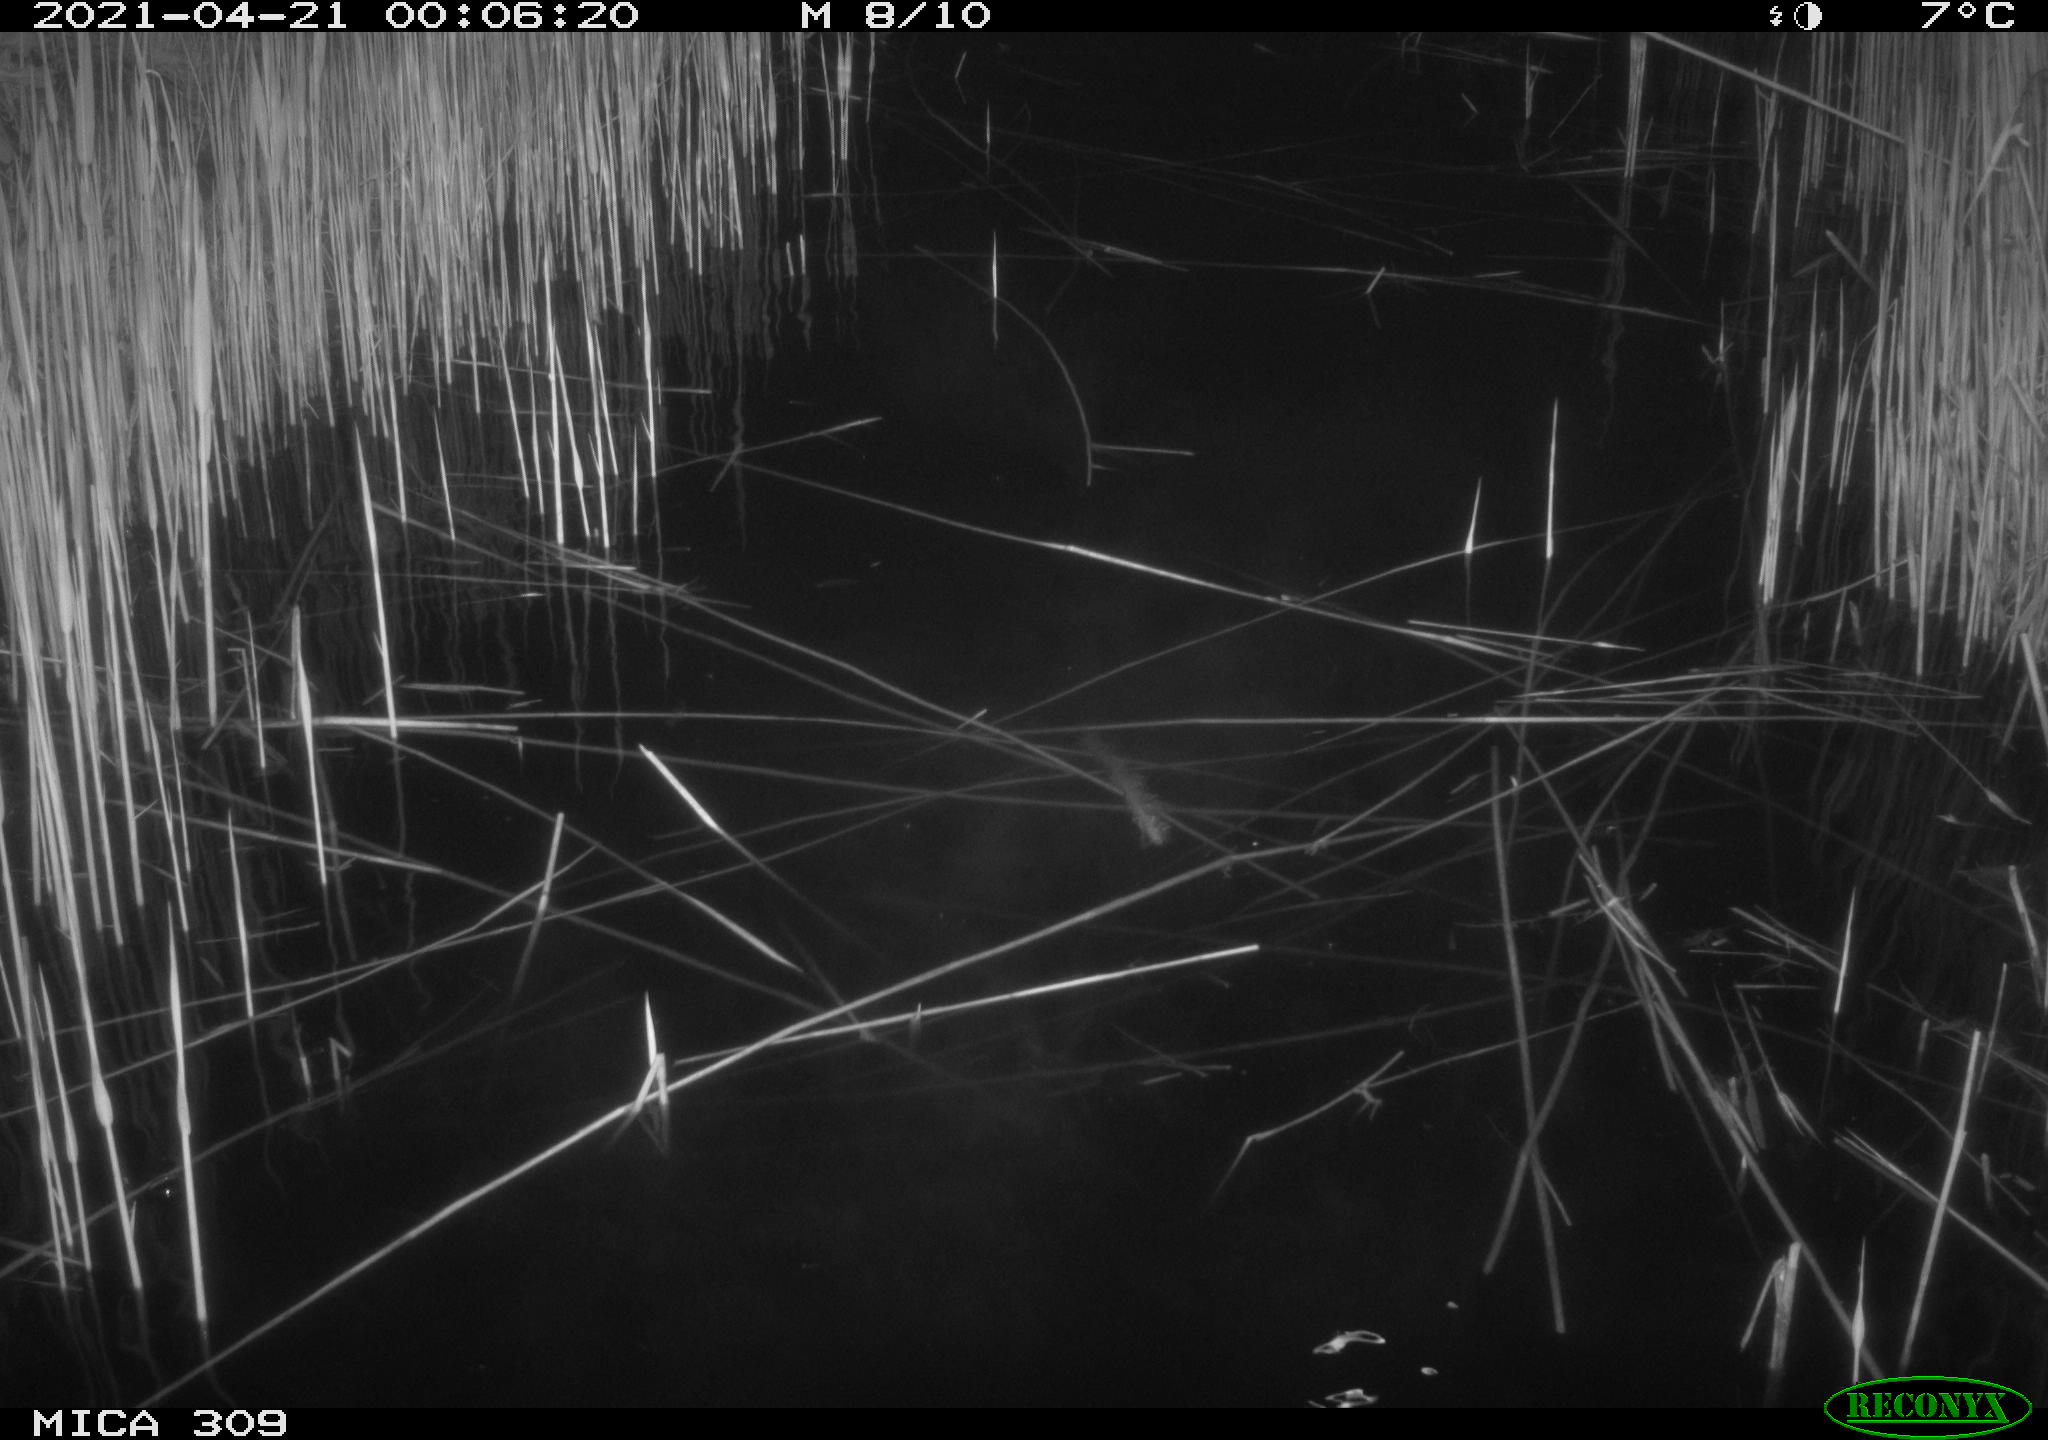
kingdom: Animalia
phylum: Chordata
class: Aves
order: Anseriformes
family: Anatidae
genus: Anas
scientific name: Anas platyrhynchos
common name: Mallard
